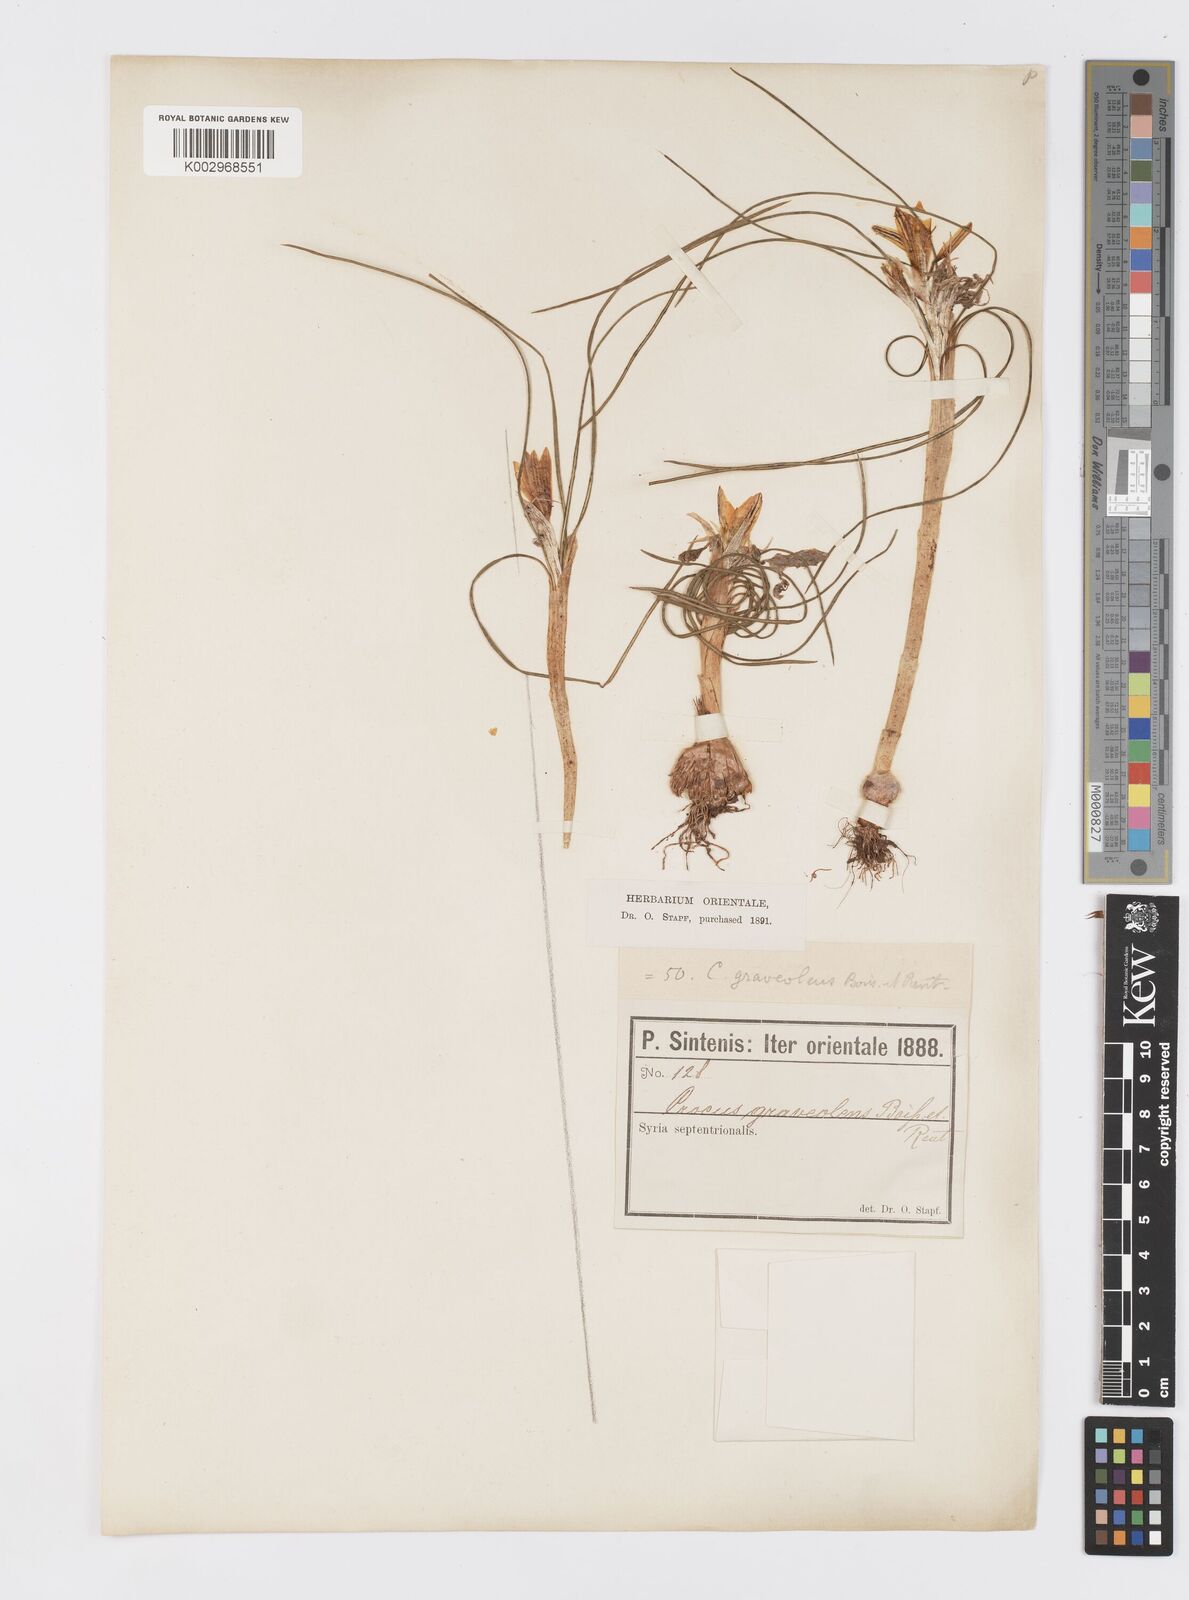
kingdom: Plantae
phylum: Tracheophyta
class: Liliopsida
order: Asparagales
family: Iridaceae
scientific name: Iridaceae
